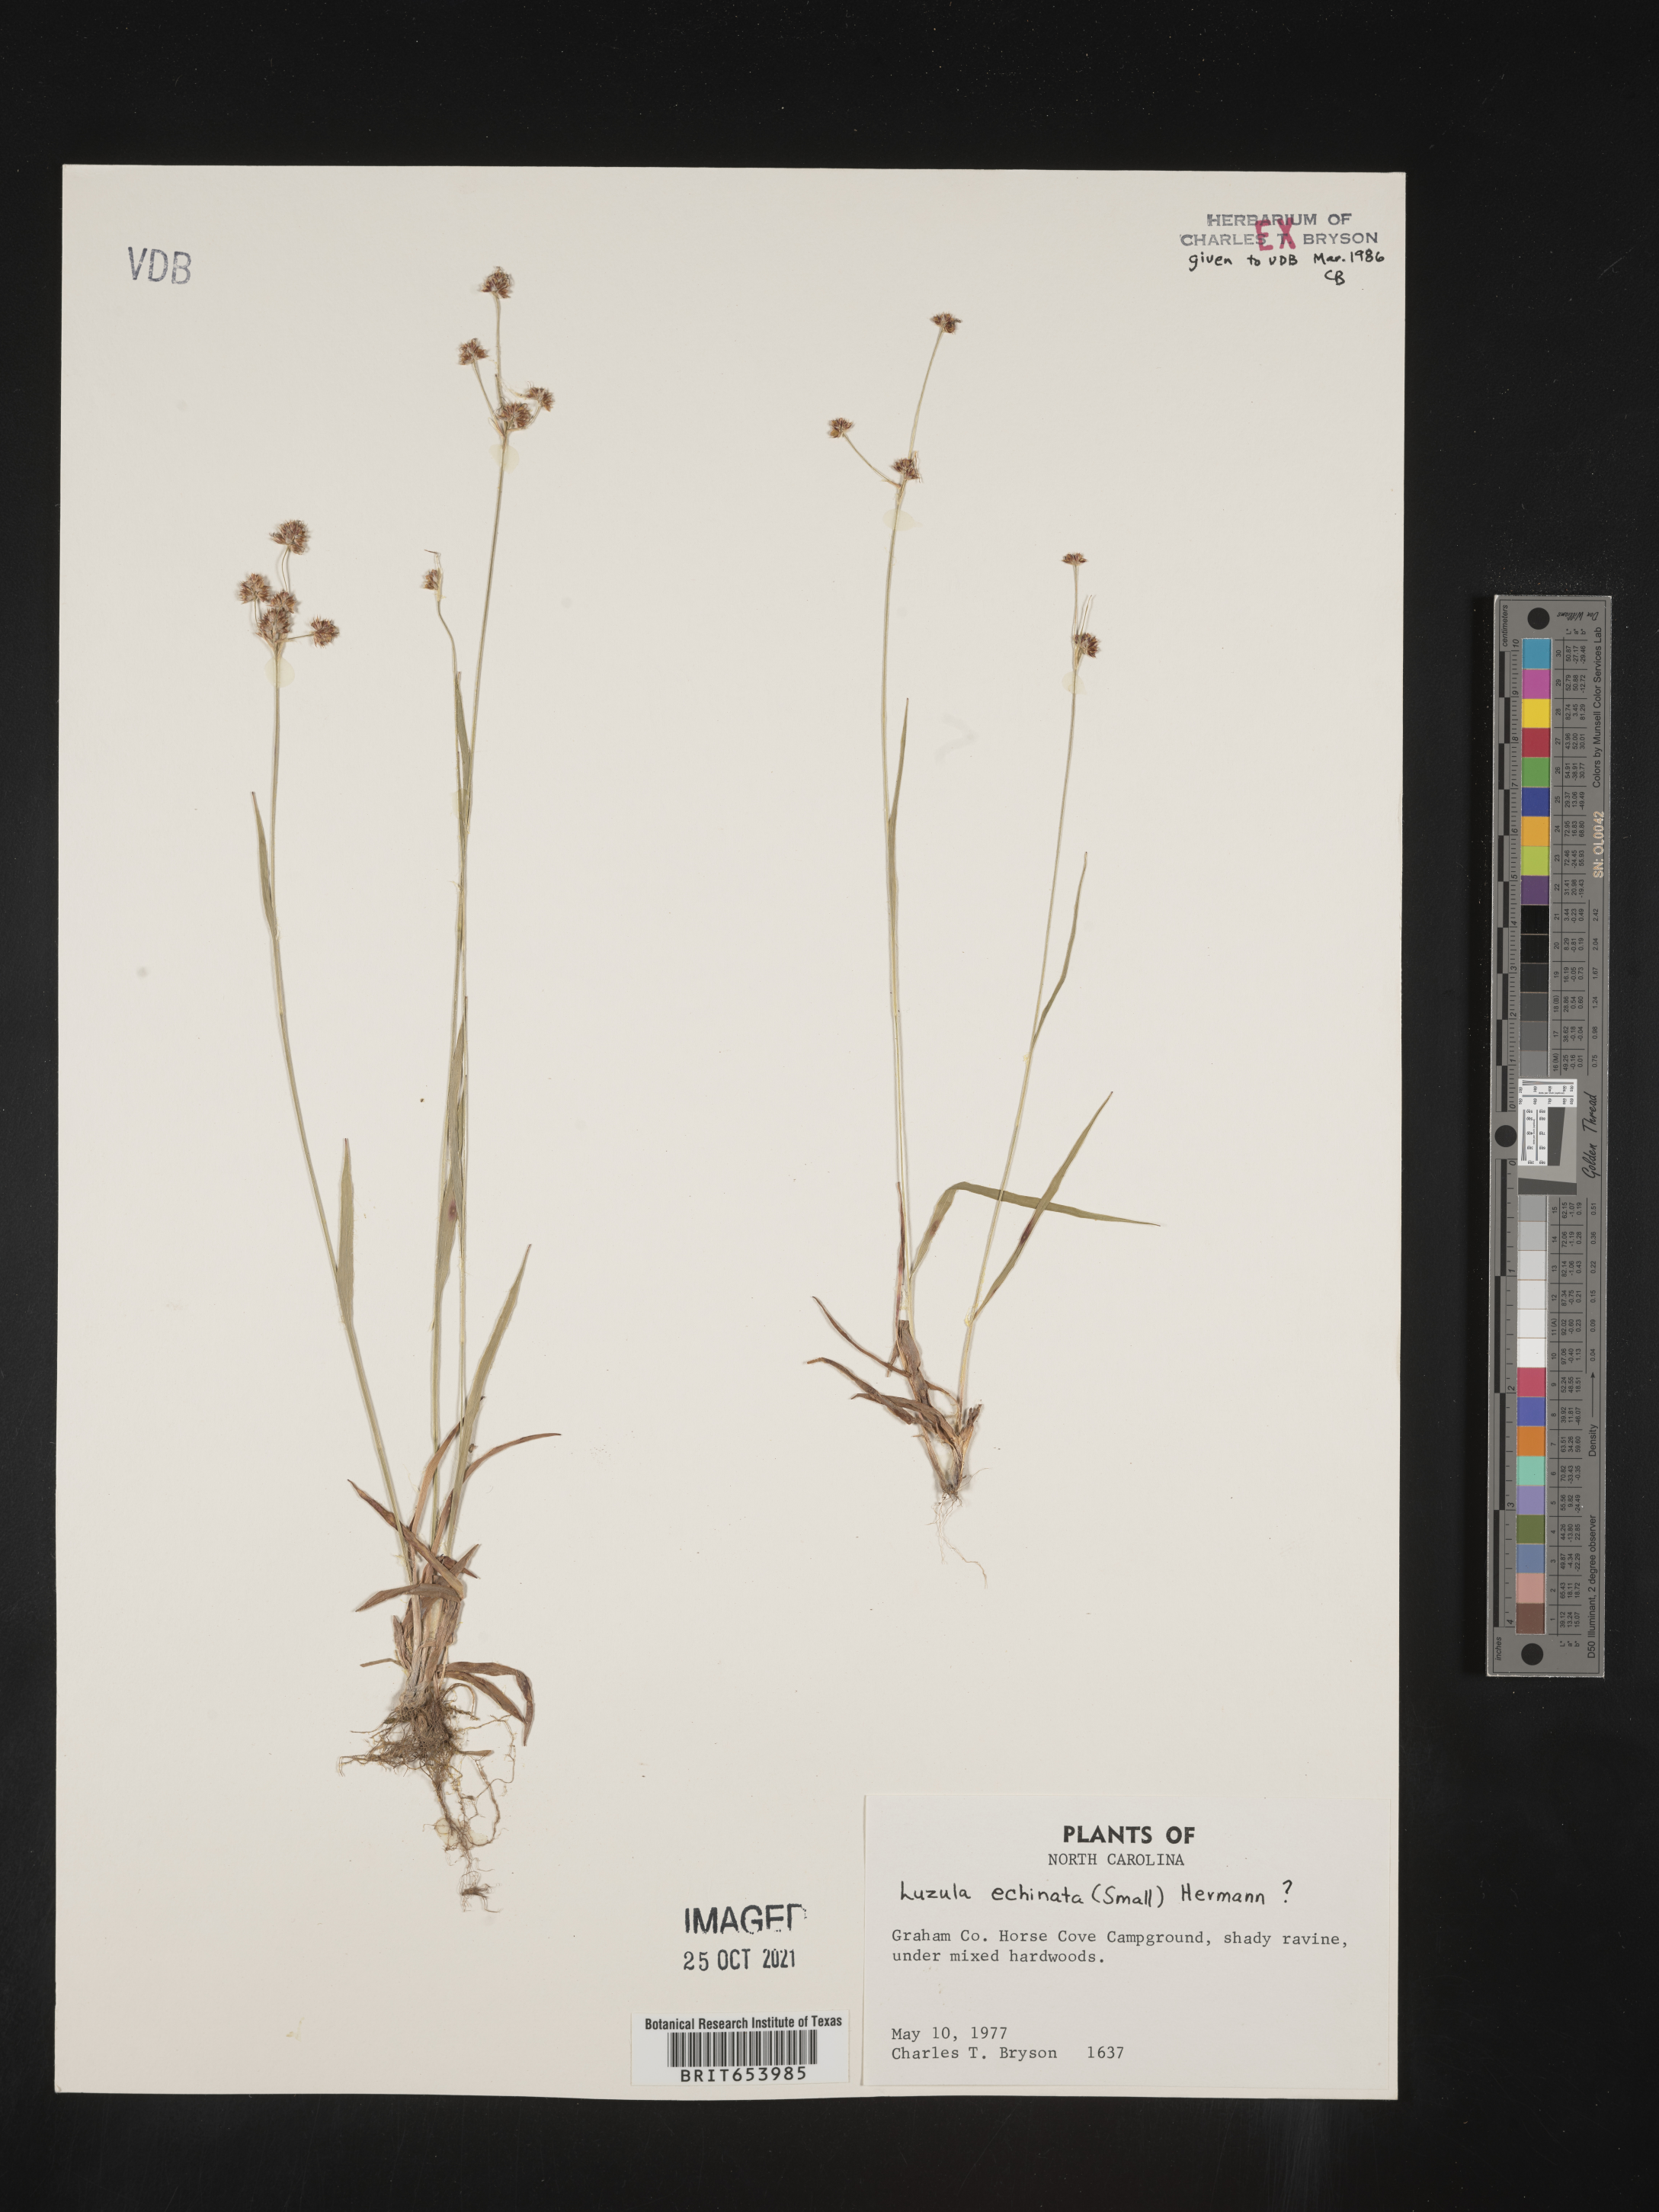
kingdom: Plantae
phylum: Tracheophyta
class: Liliopsida
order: Poales
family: Juncaceae
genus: Luzula
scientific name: Luzula echinata
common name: Hedgehog woodrush
